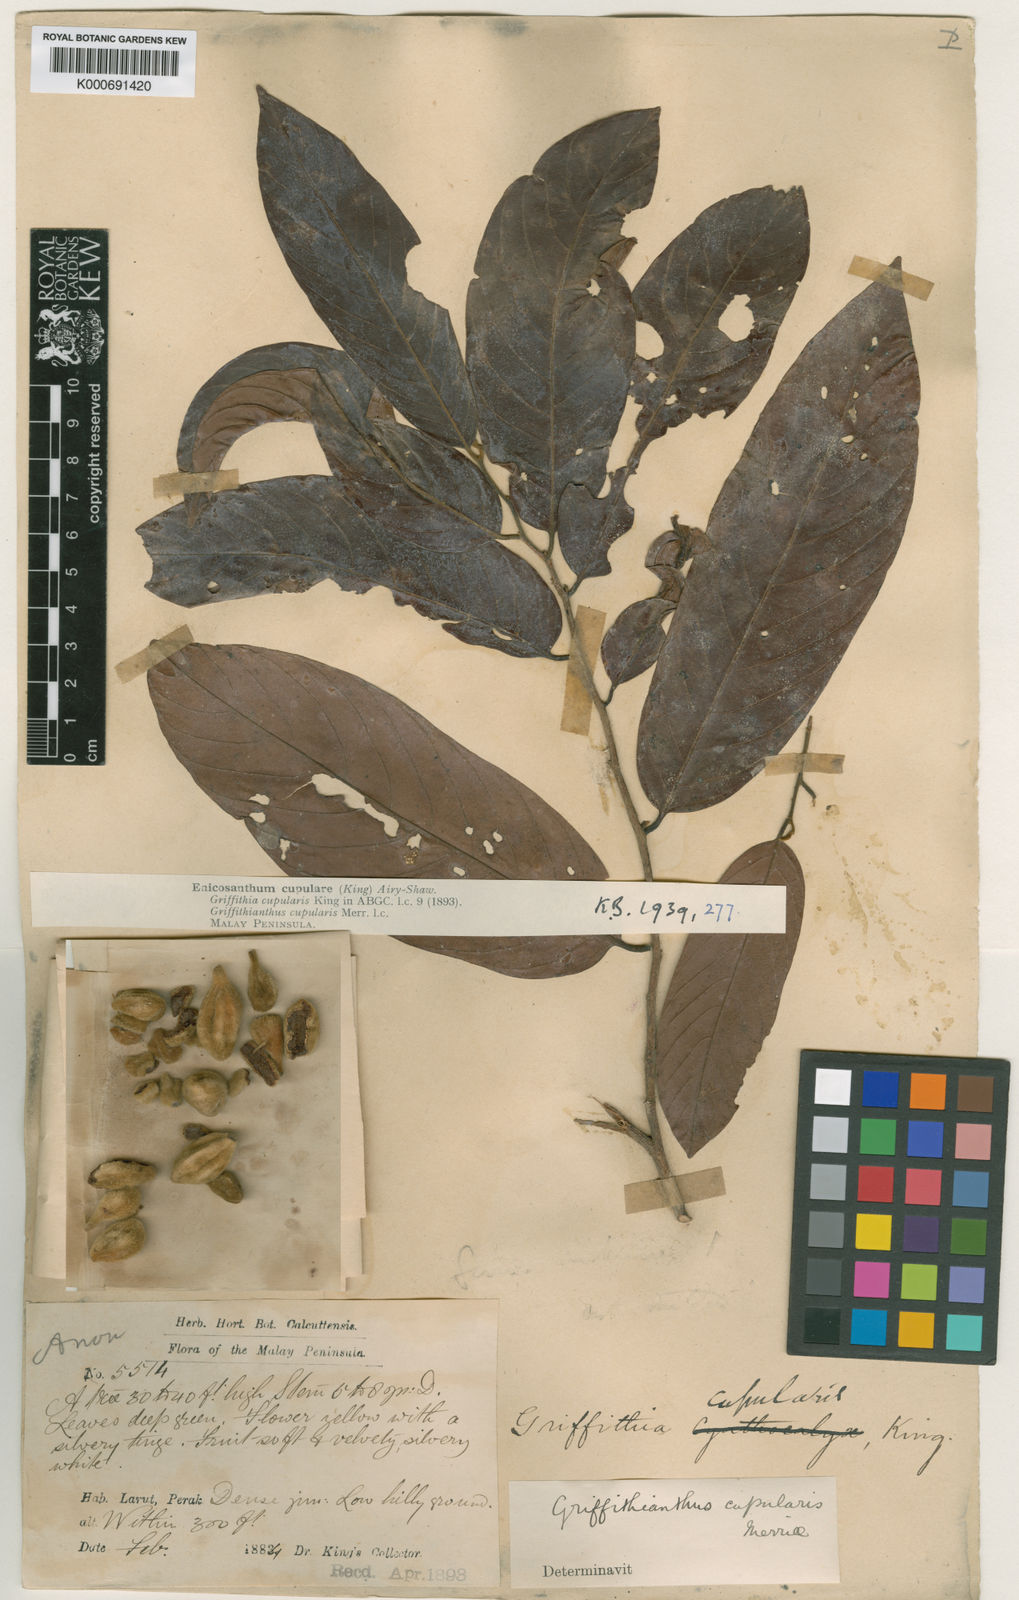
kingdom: Plantae
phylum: Tracheophyta
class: Magnoliopsida
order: Magnoliales
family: Annonaceae
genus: Enicosanthum
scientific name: Enicosanthum cupulare
